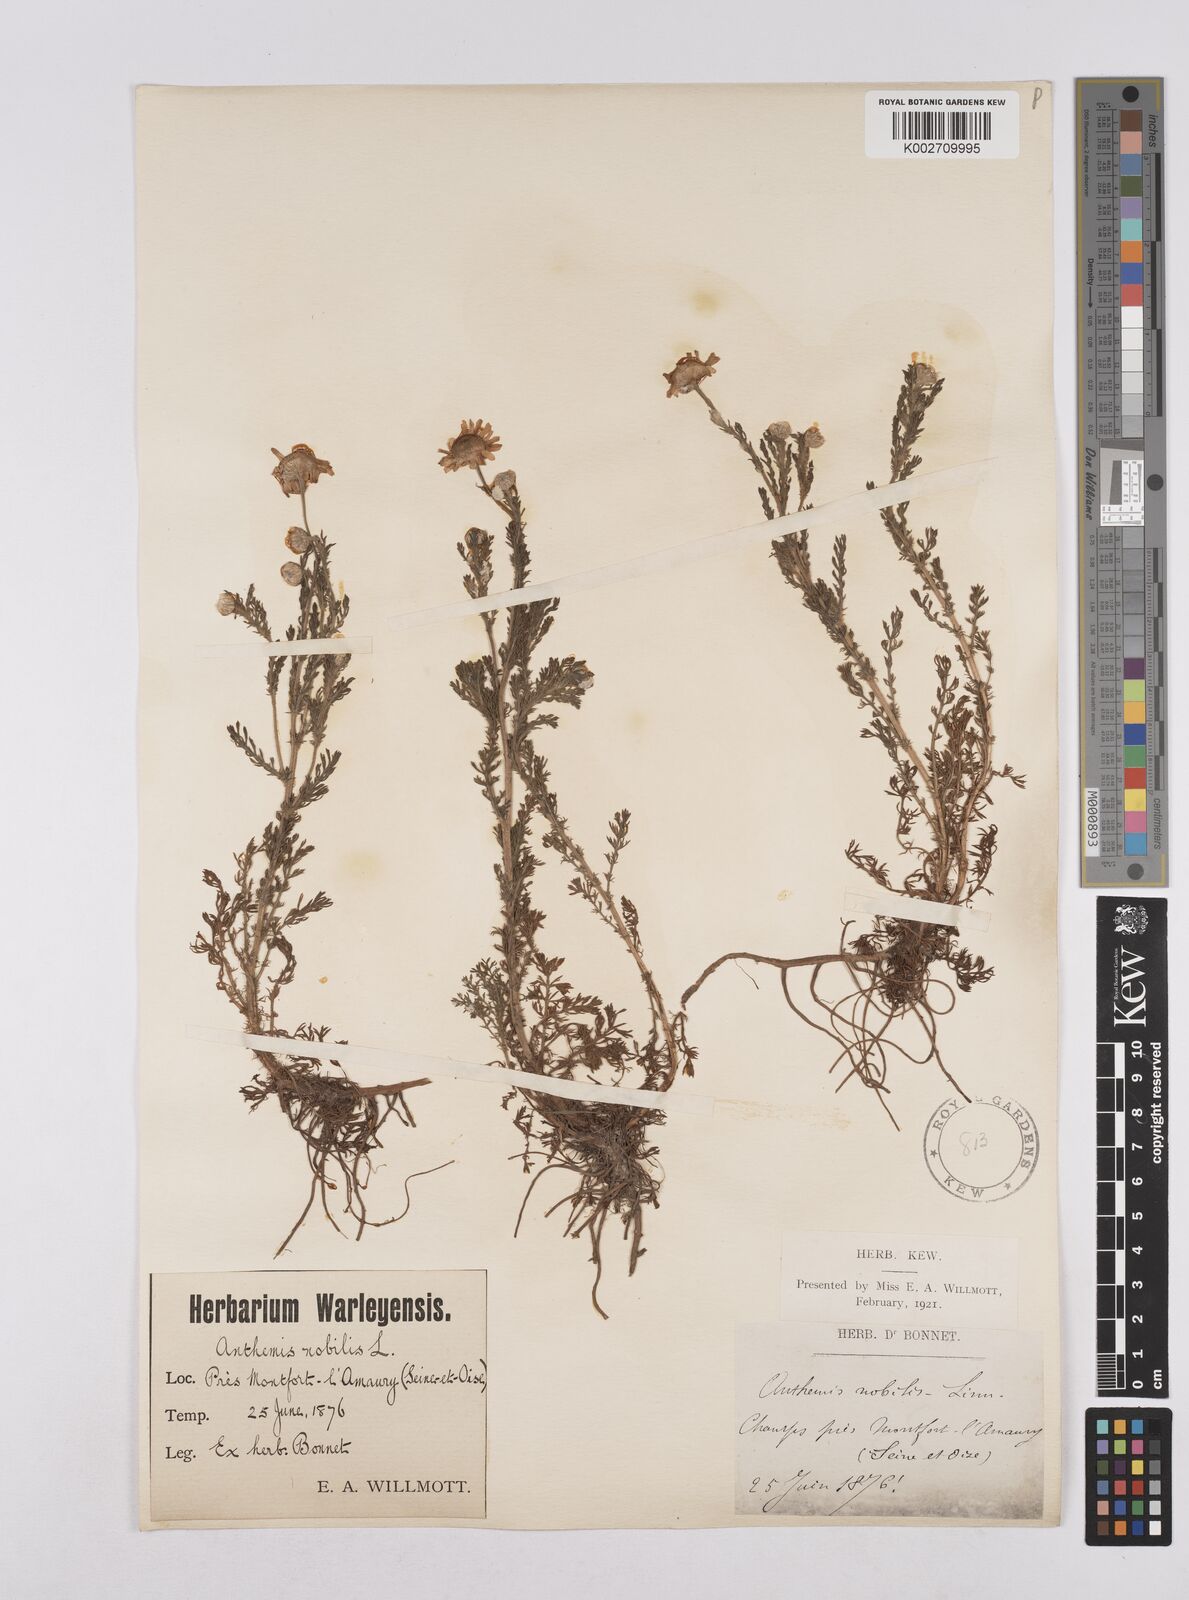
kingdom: Plantae
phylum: Tracheophyta
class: Magnoliopsida
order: Asterales
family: Asteraceae
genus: Chamaemelum
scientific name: Chamaemelum nobile
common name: Roman chamomile
